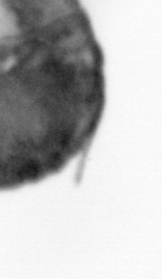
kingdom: Animalia
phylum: Annelida
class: Polychaeta
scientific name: Polychaeta
